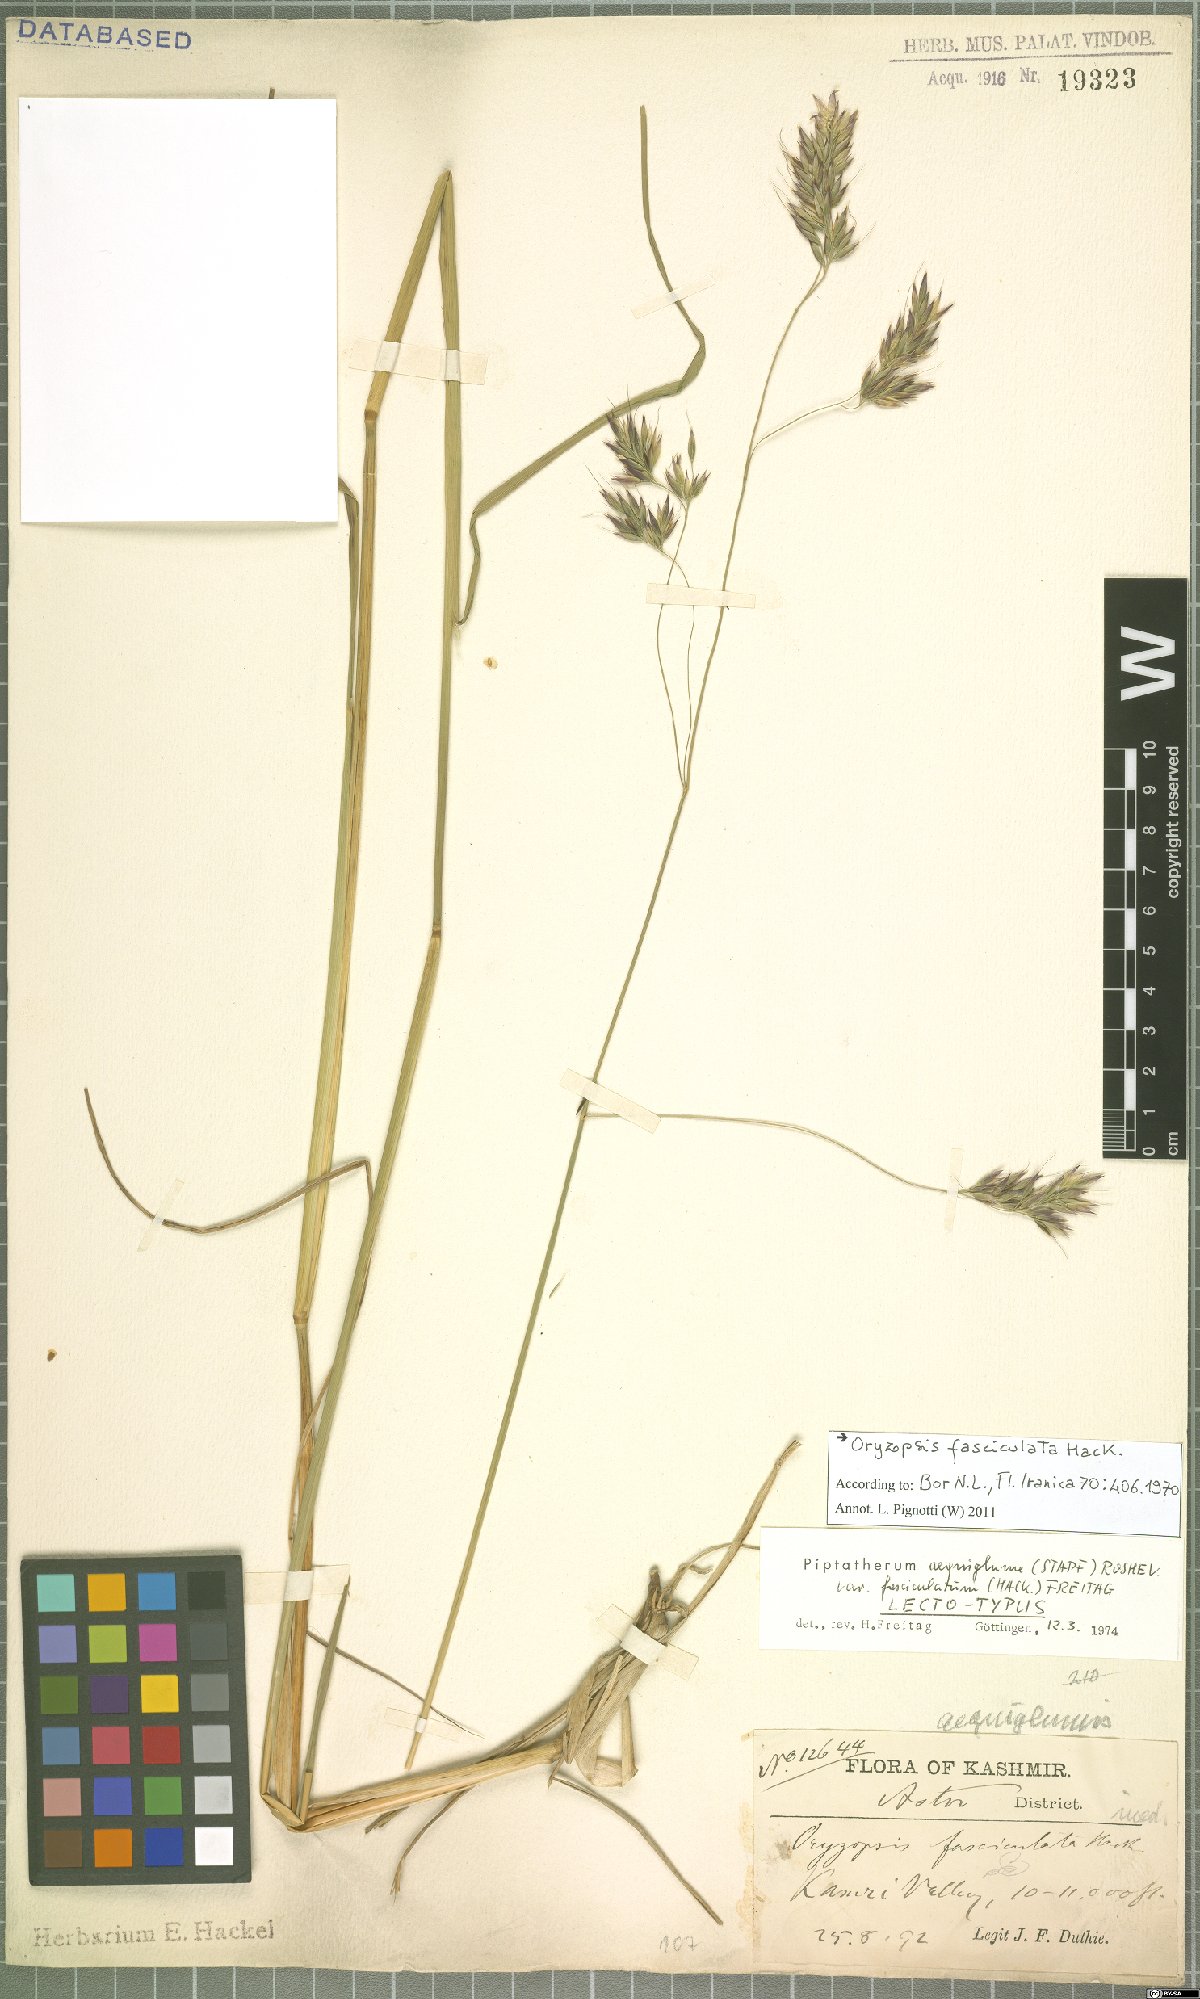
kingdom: Plantae
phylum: Tracheophyta
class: Liliopsida
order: Poales
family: Poaceae
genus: Piptatherum
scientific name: Piptatherum aequiglume
